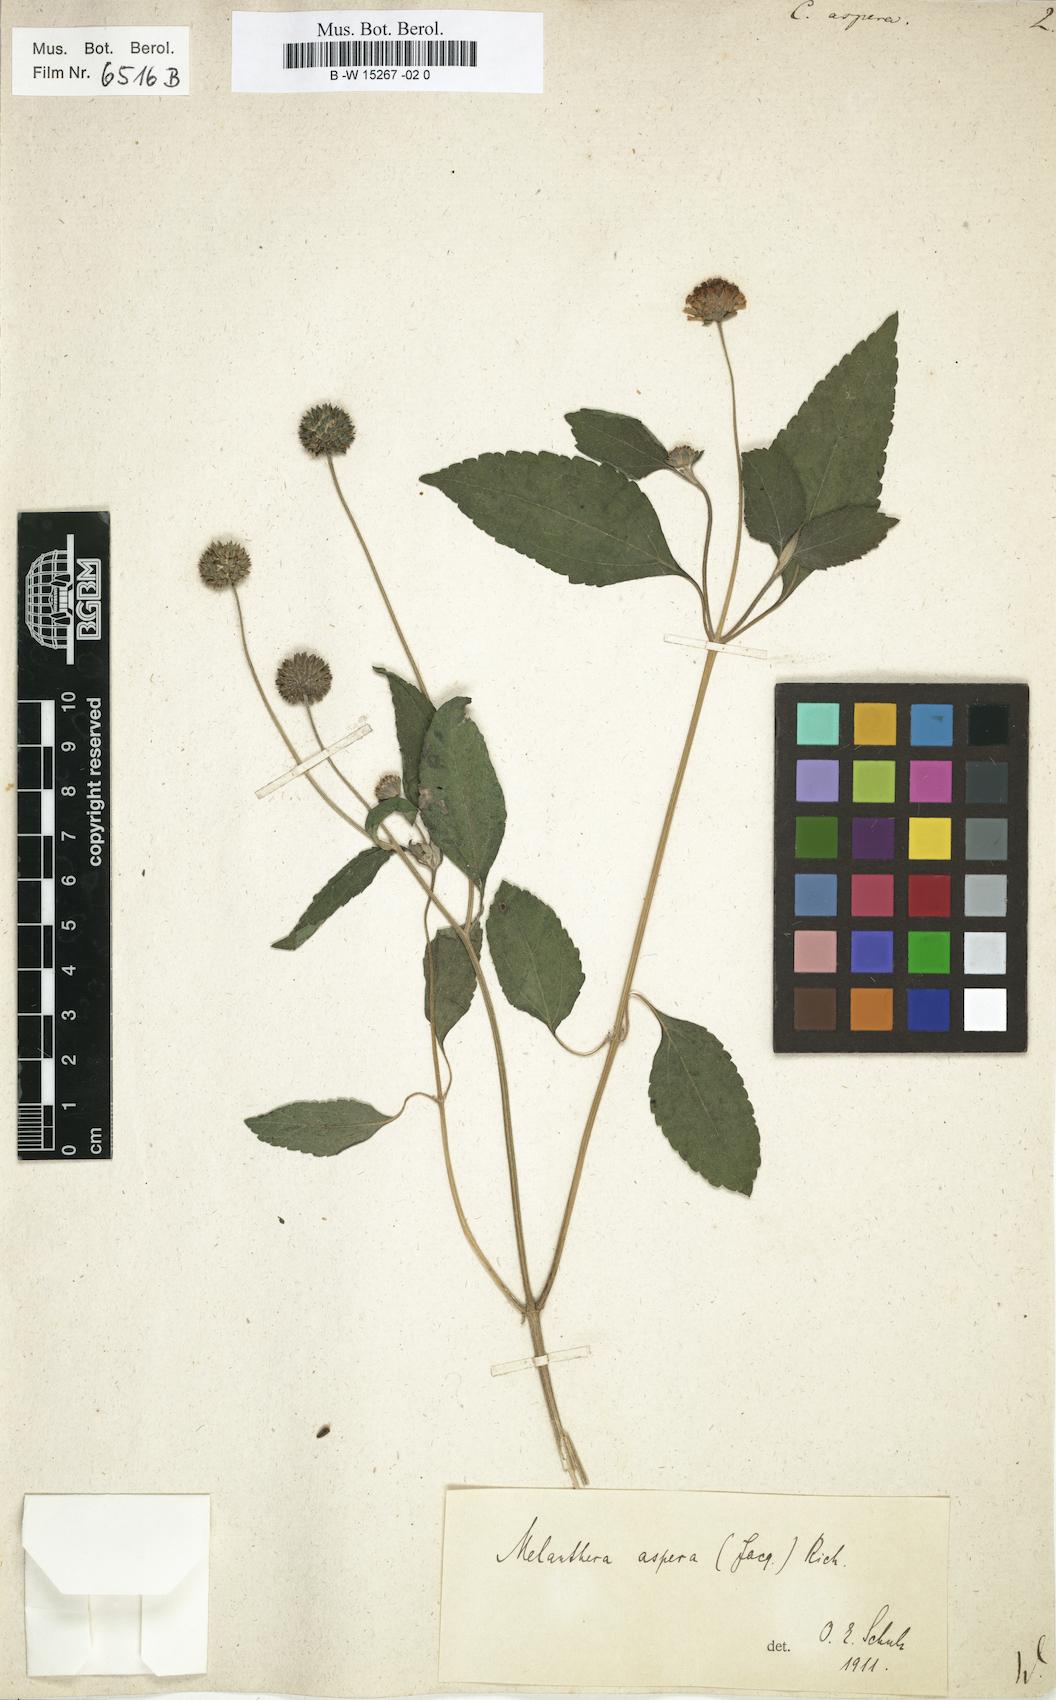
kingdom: Plantae
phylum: Tracheophyta
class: Magnoliopsida
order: Asterales
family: Asteraceae
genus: Melanthera
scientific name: Melanthera nivea
